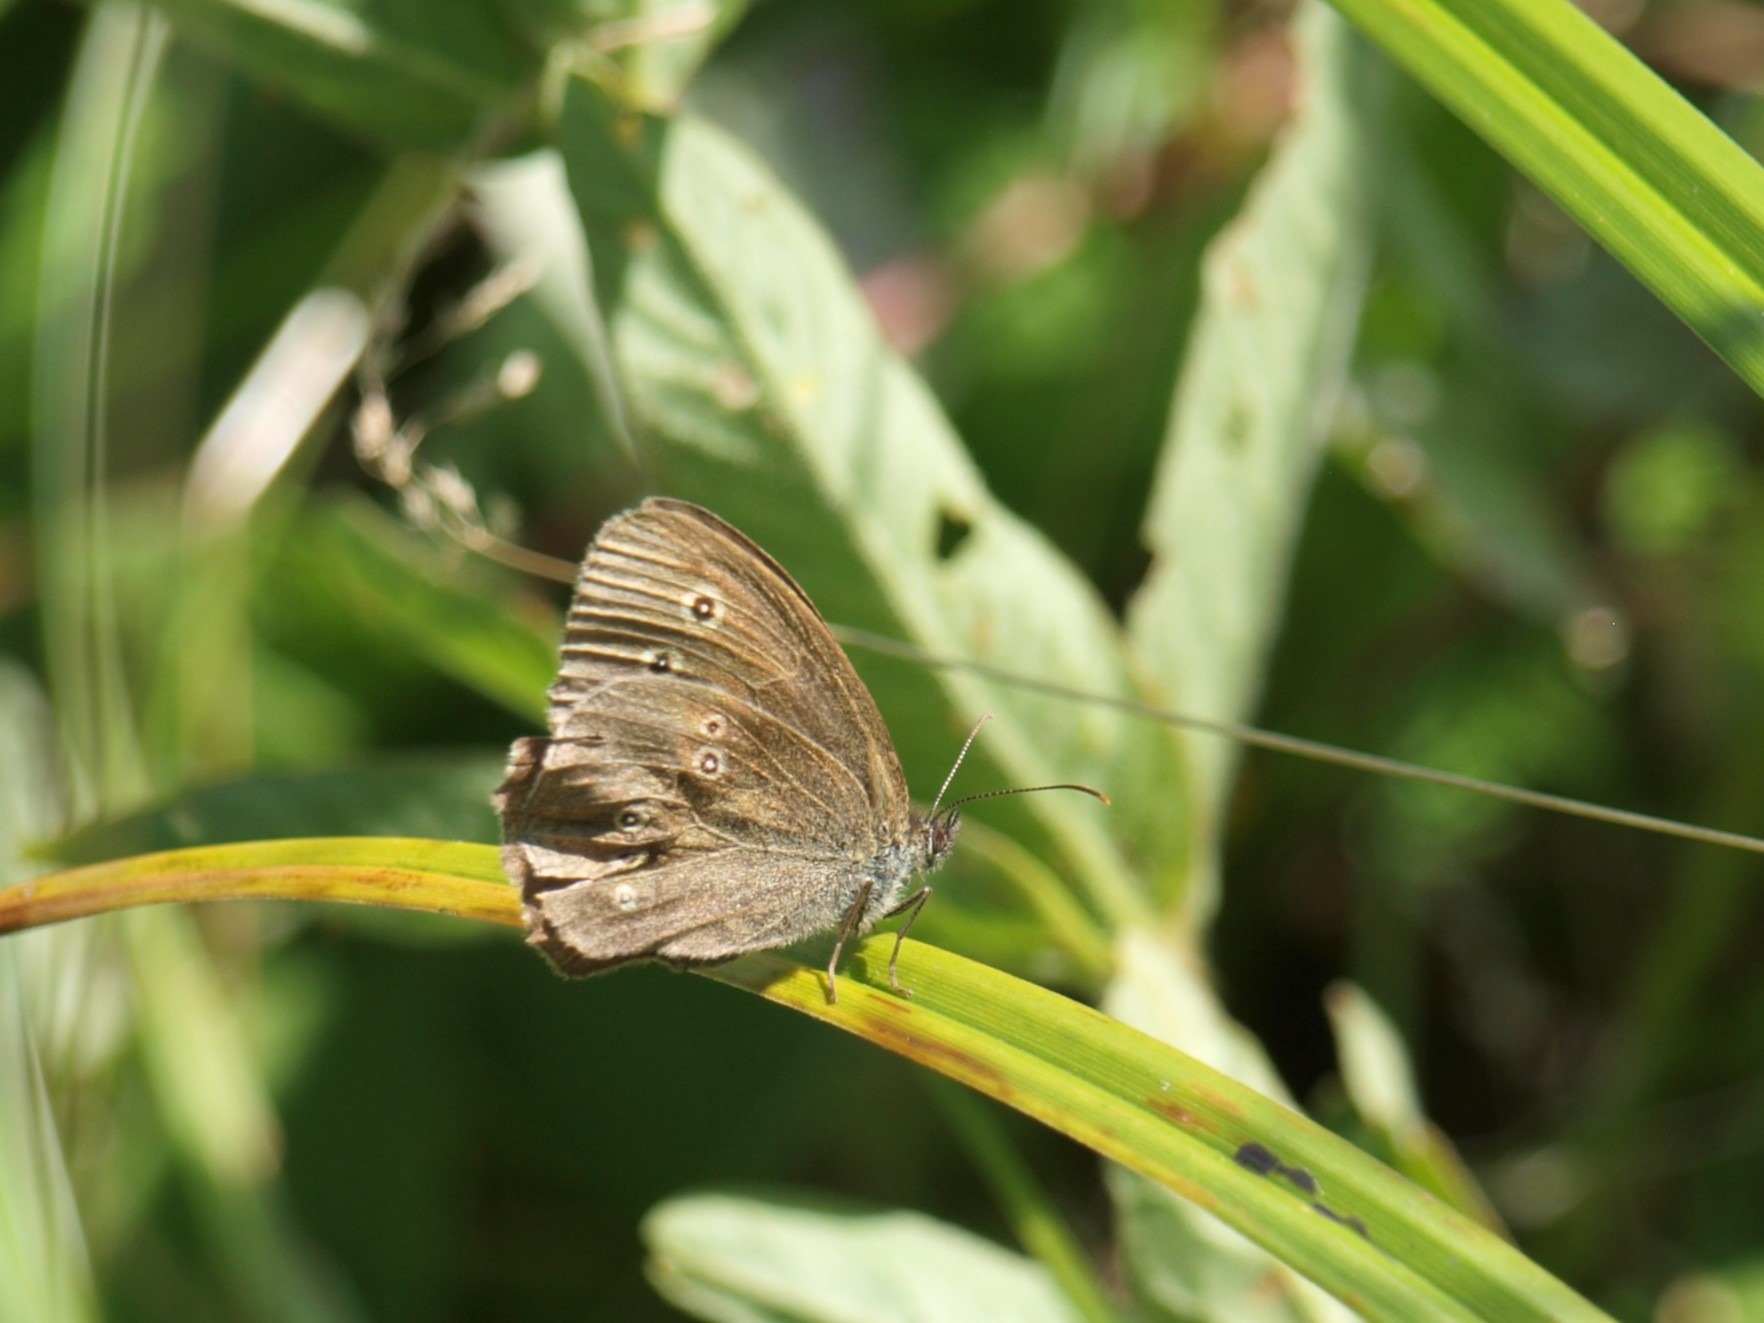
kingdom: Animalia
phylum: Arthropoda
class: Insecta
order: Lepidoptera
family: Nymphalidae
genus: Aphantopus
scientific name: Aphantopus hyperantus
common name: Engrandøje
